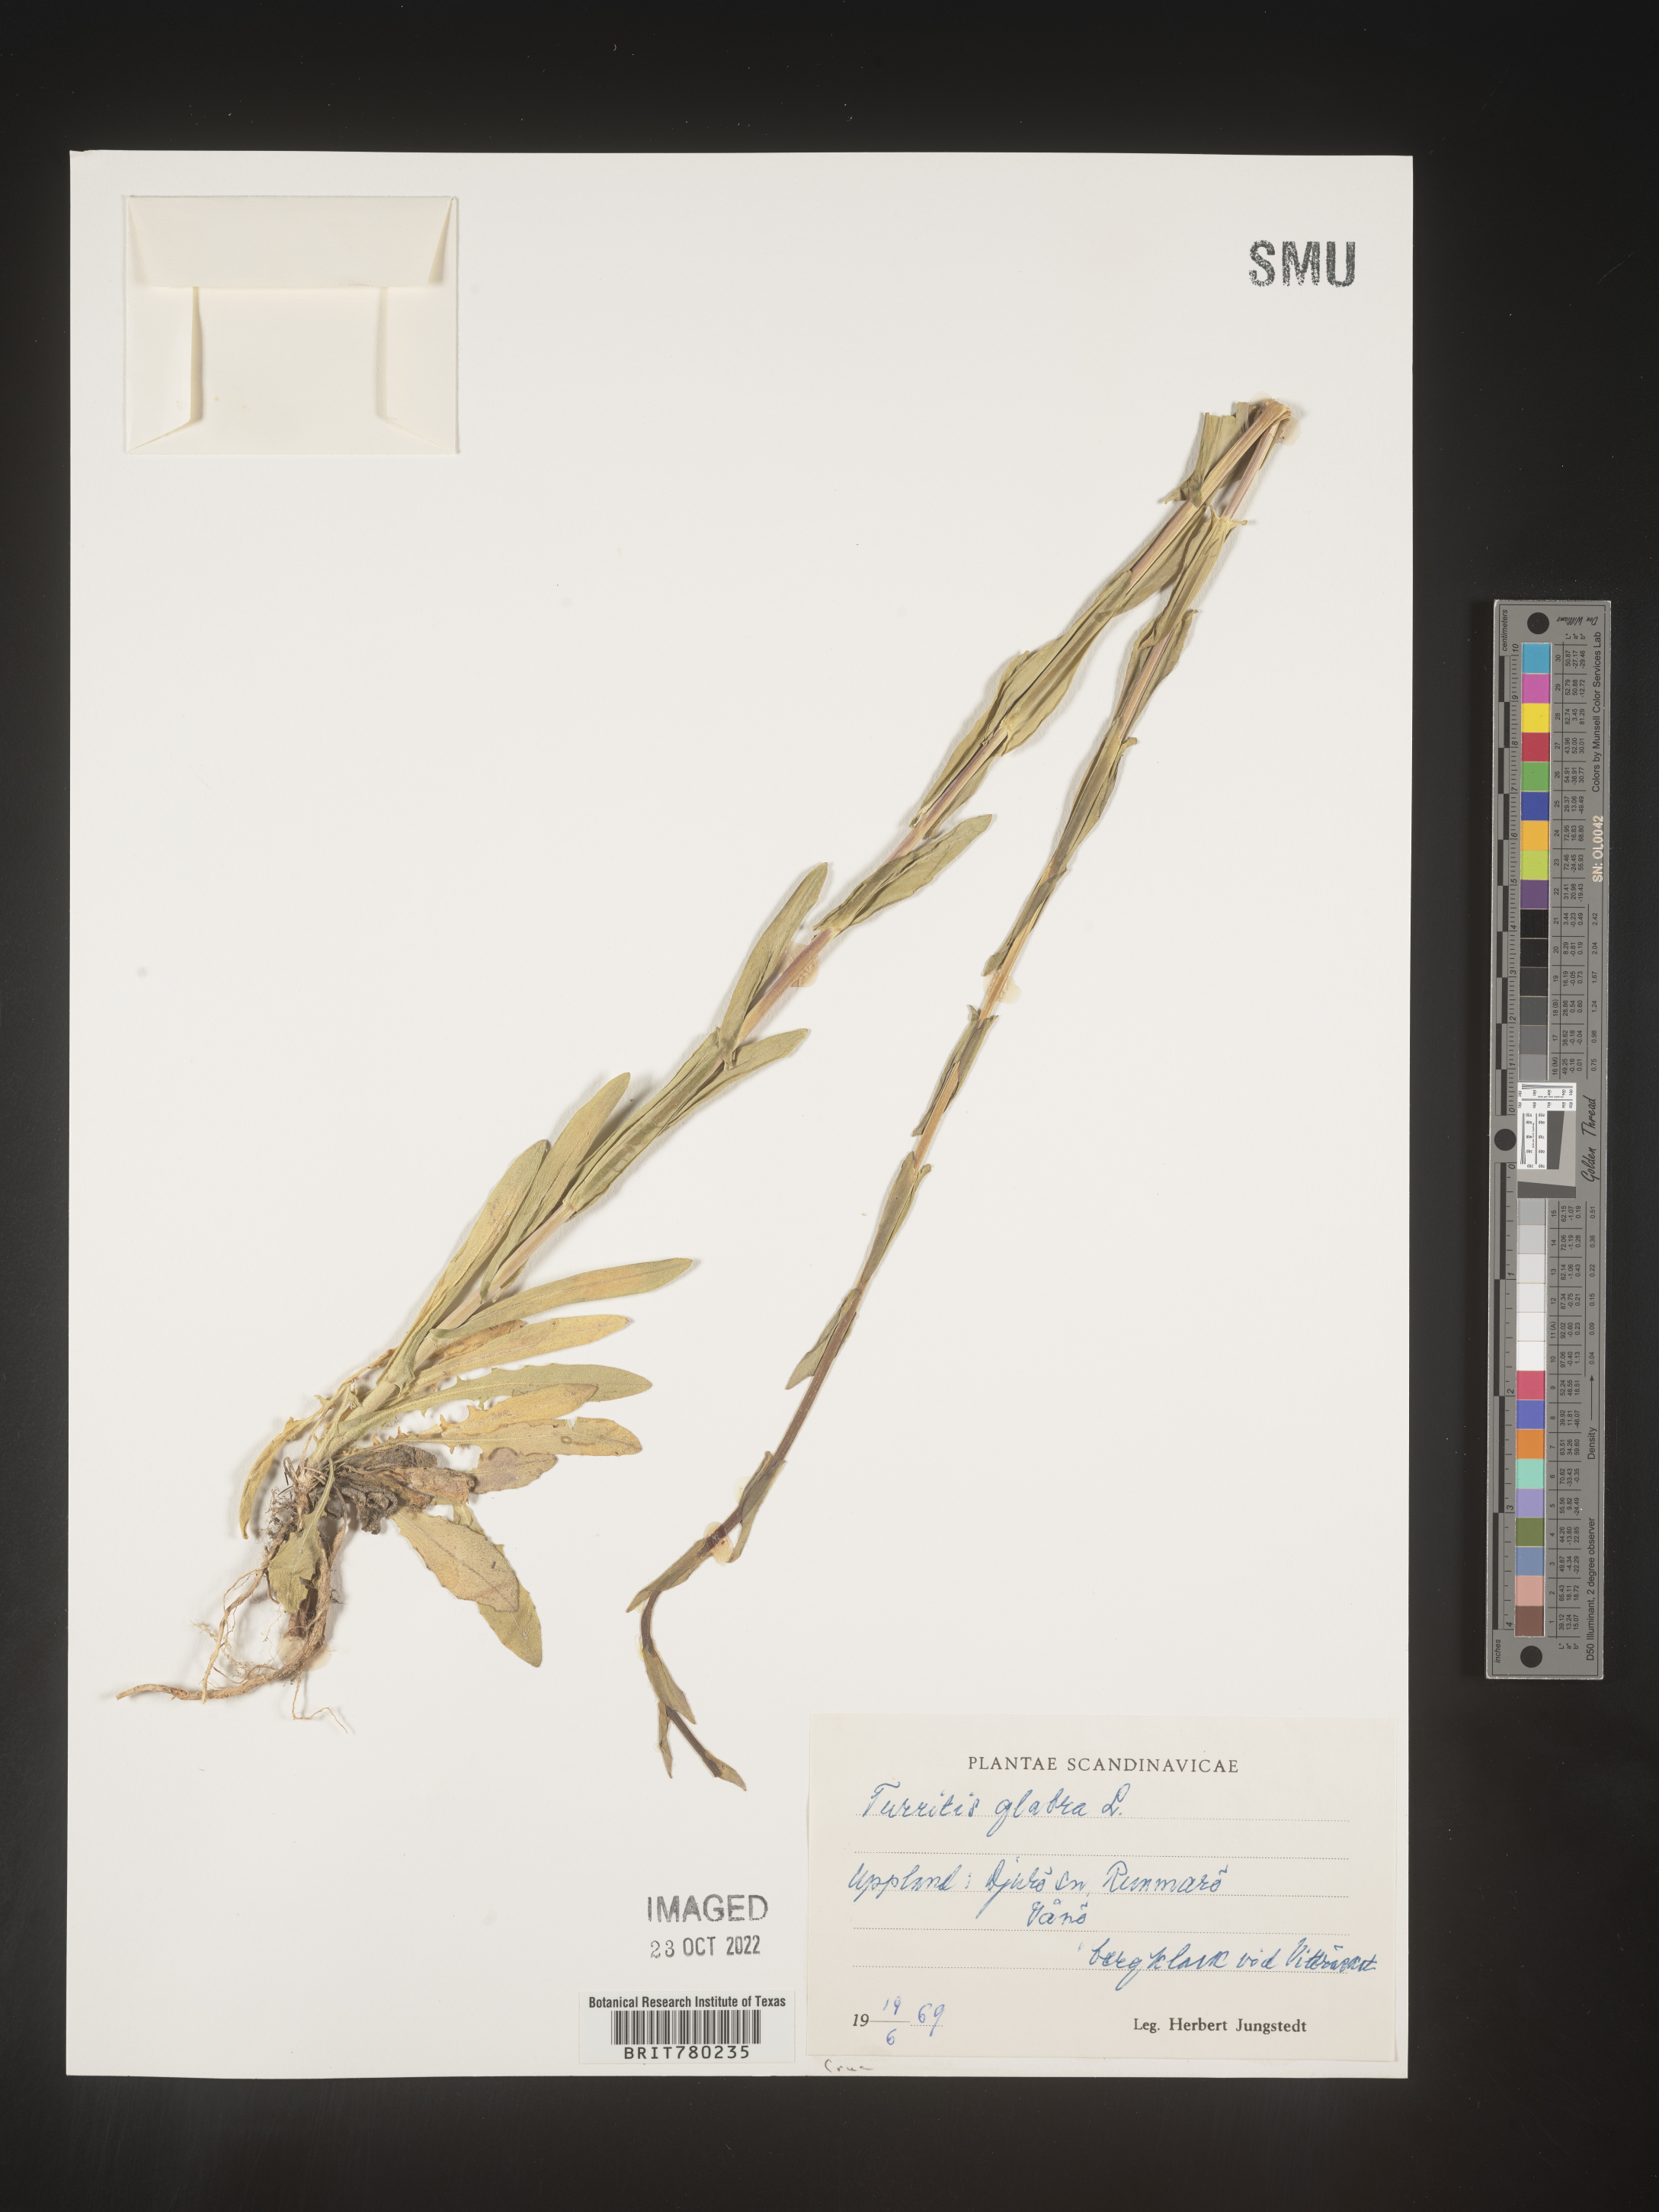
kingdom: Plantae
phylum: Tracheophyta
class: Magnoliopsida
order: Brassicales
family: Brassicaceae
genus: Turritis
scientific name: Turritis
